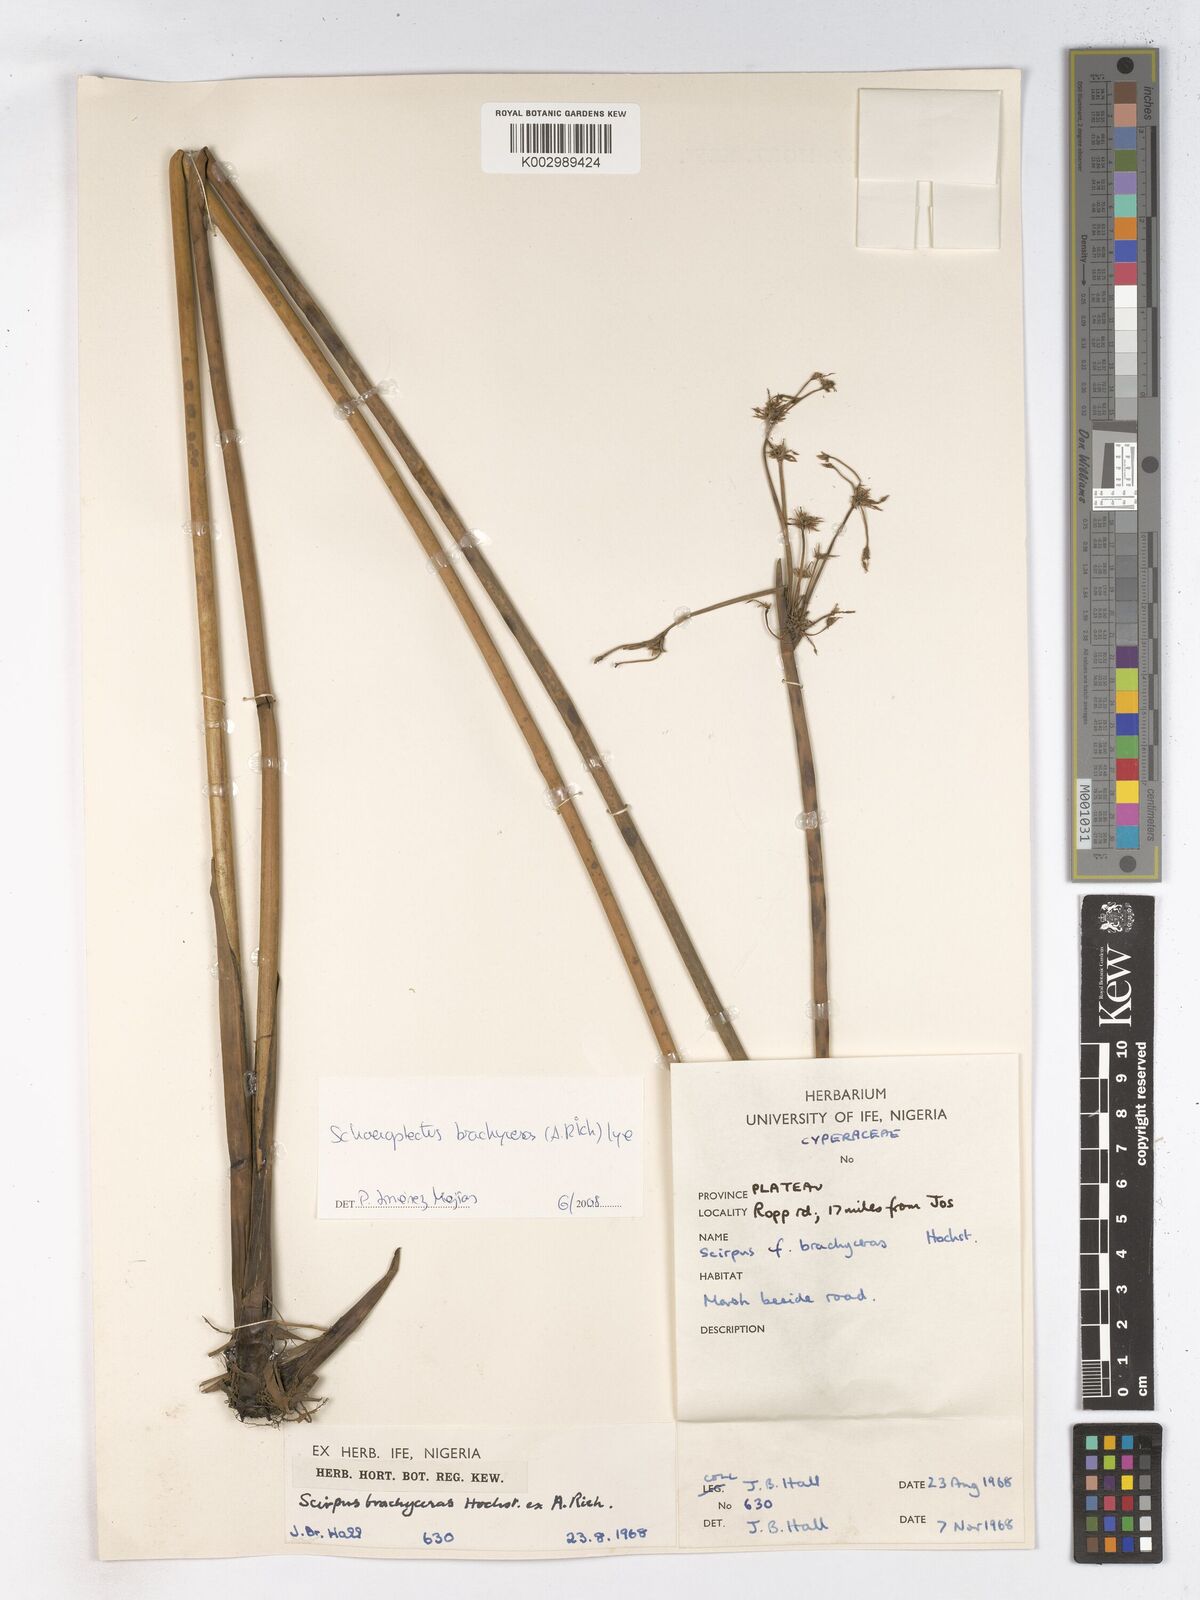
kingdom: Plantae
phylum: Tracheophyta
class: Liliopsida
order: Poales
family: Cyperaceae
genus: Schoenoplectiella
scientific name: Schoenoplectiella corymbosa
